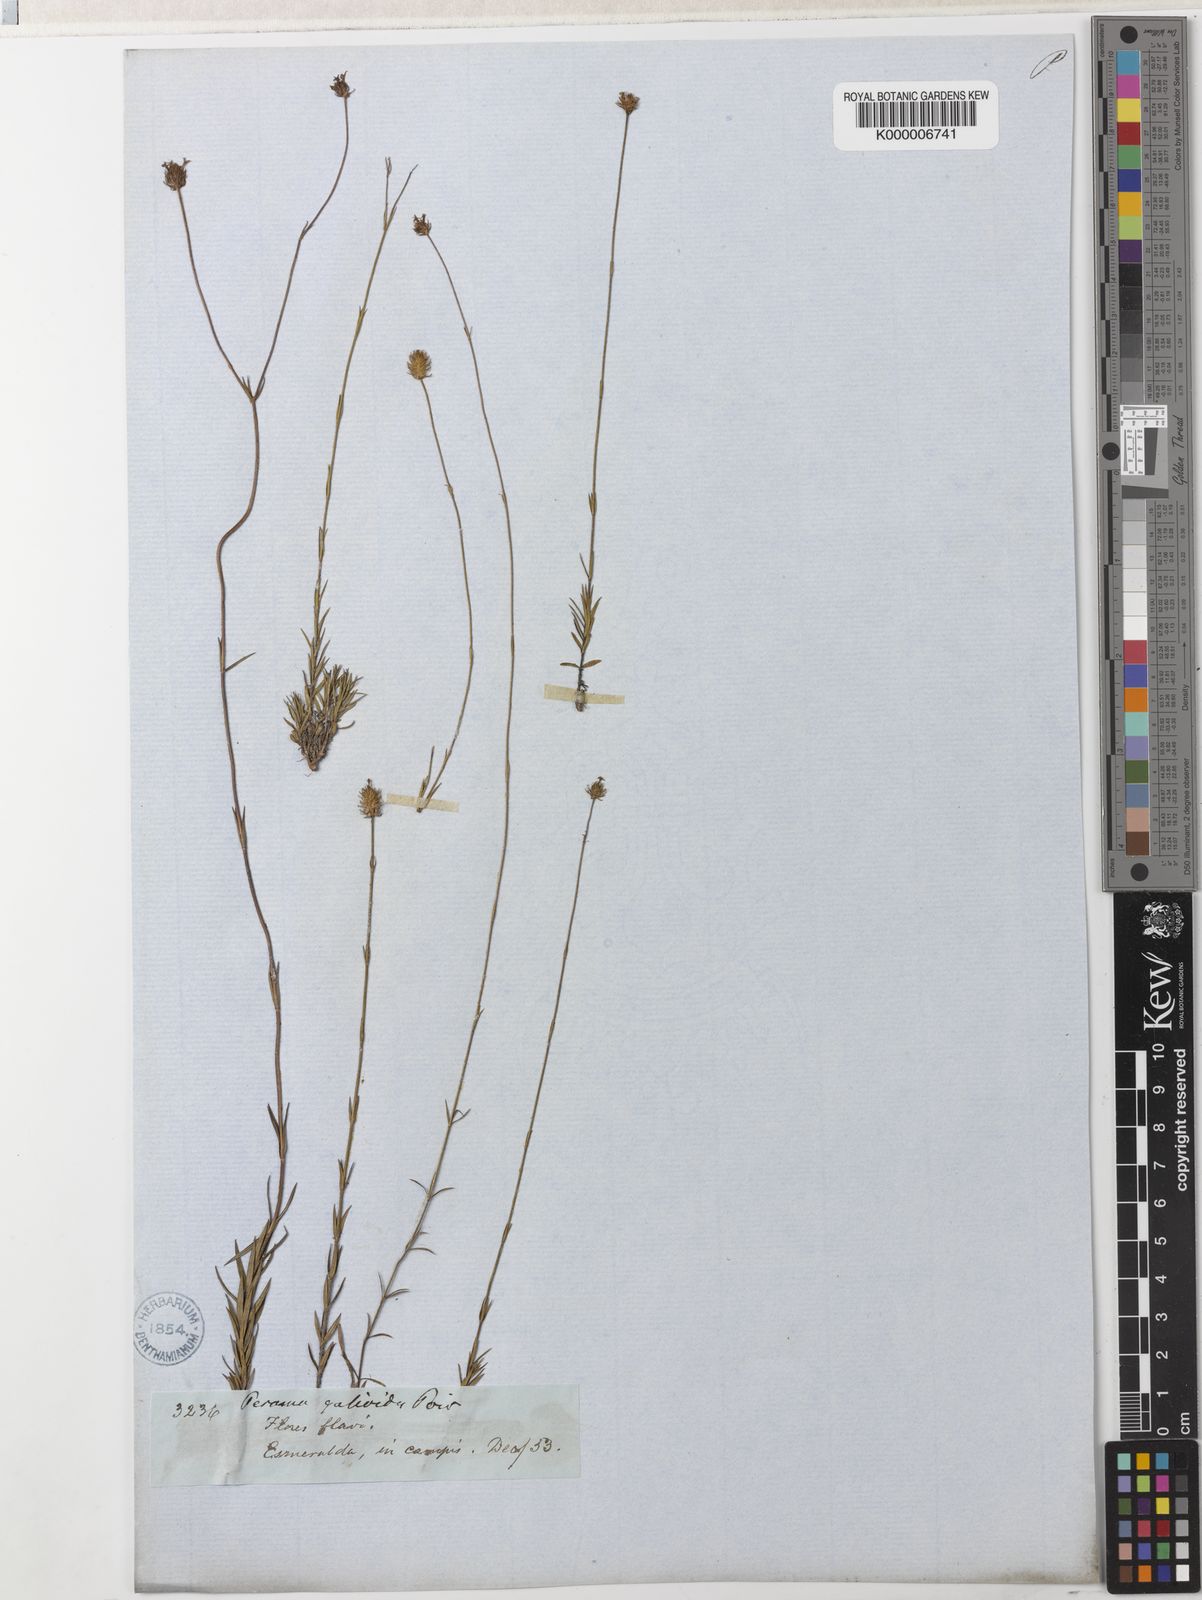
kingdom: Plantae
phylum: Tracheophyta
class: Magnoliopsida
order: Gentianales
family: Rubiaceae
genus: Perama
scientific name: Perama
